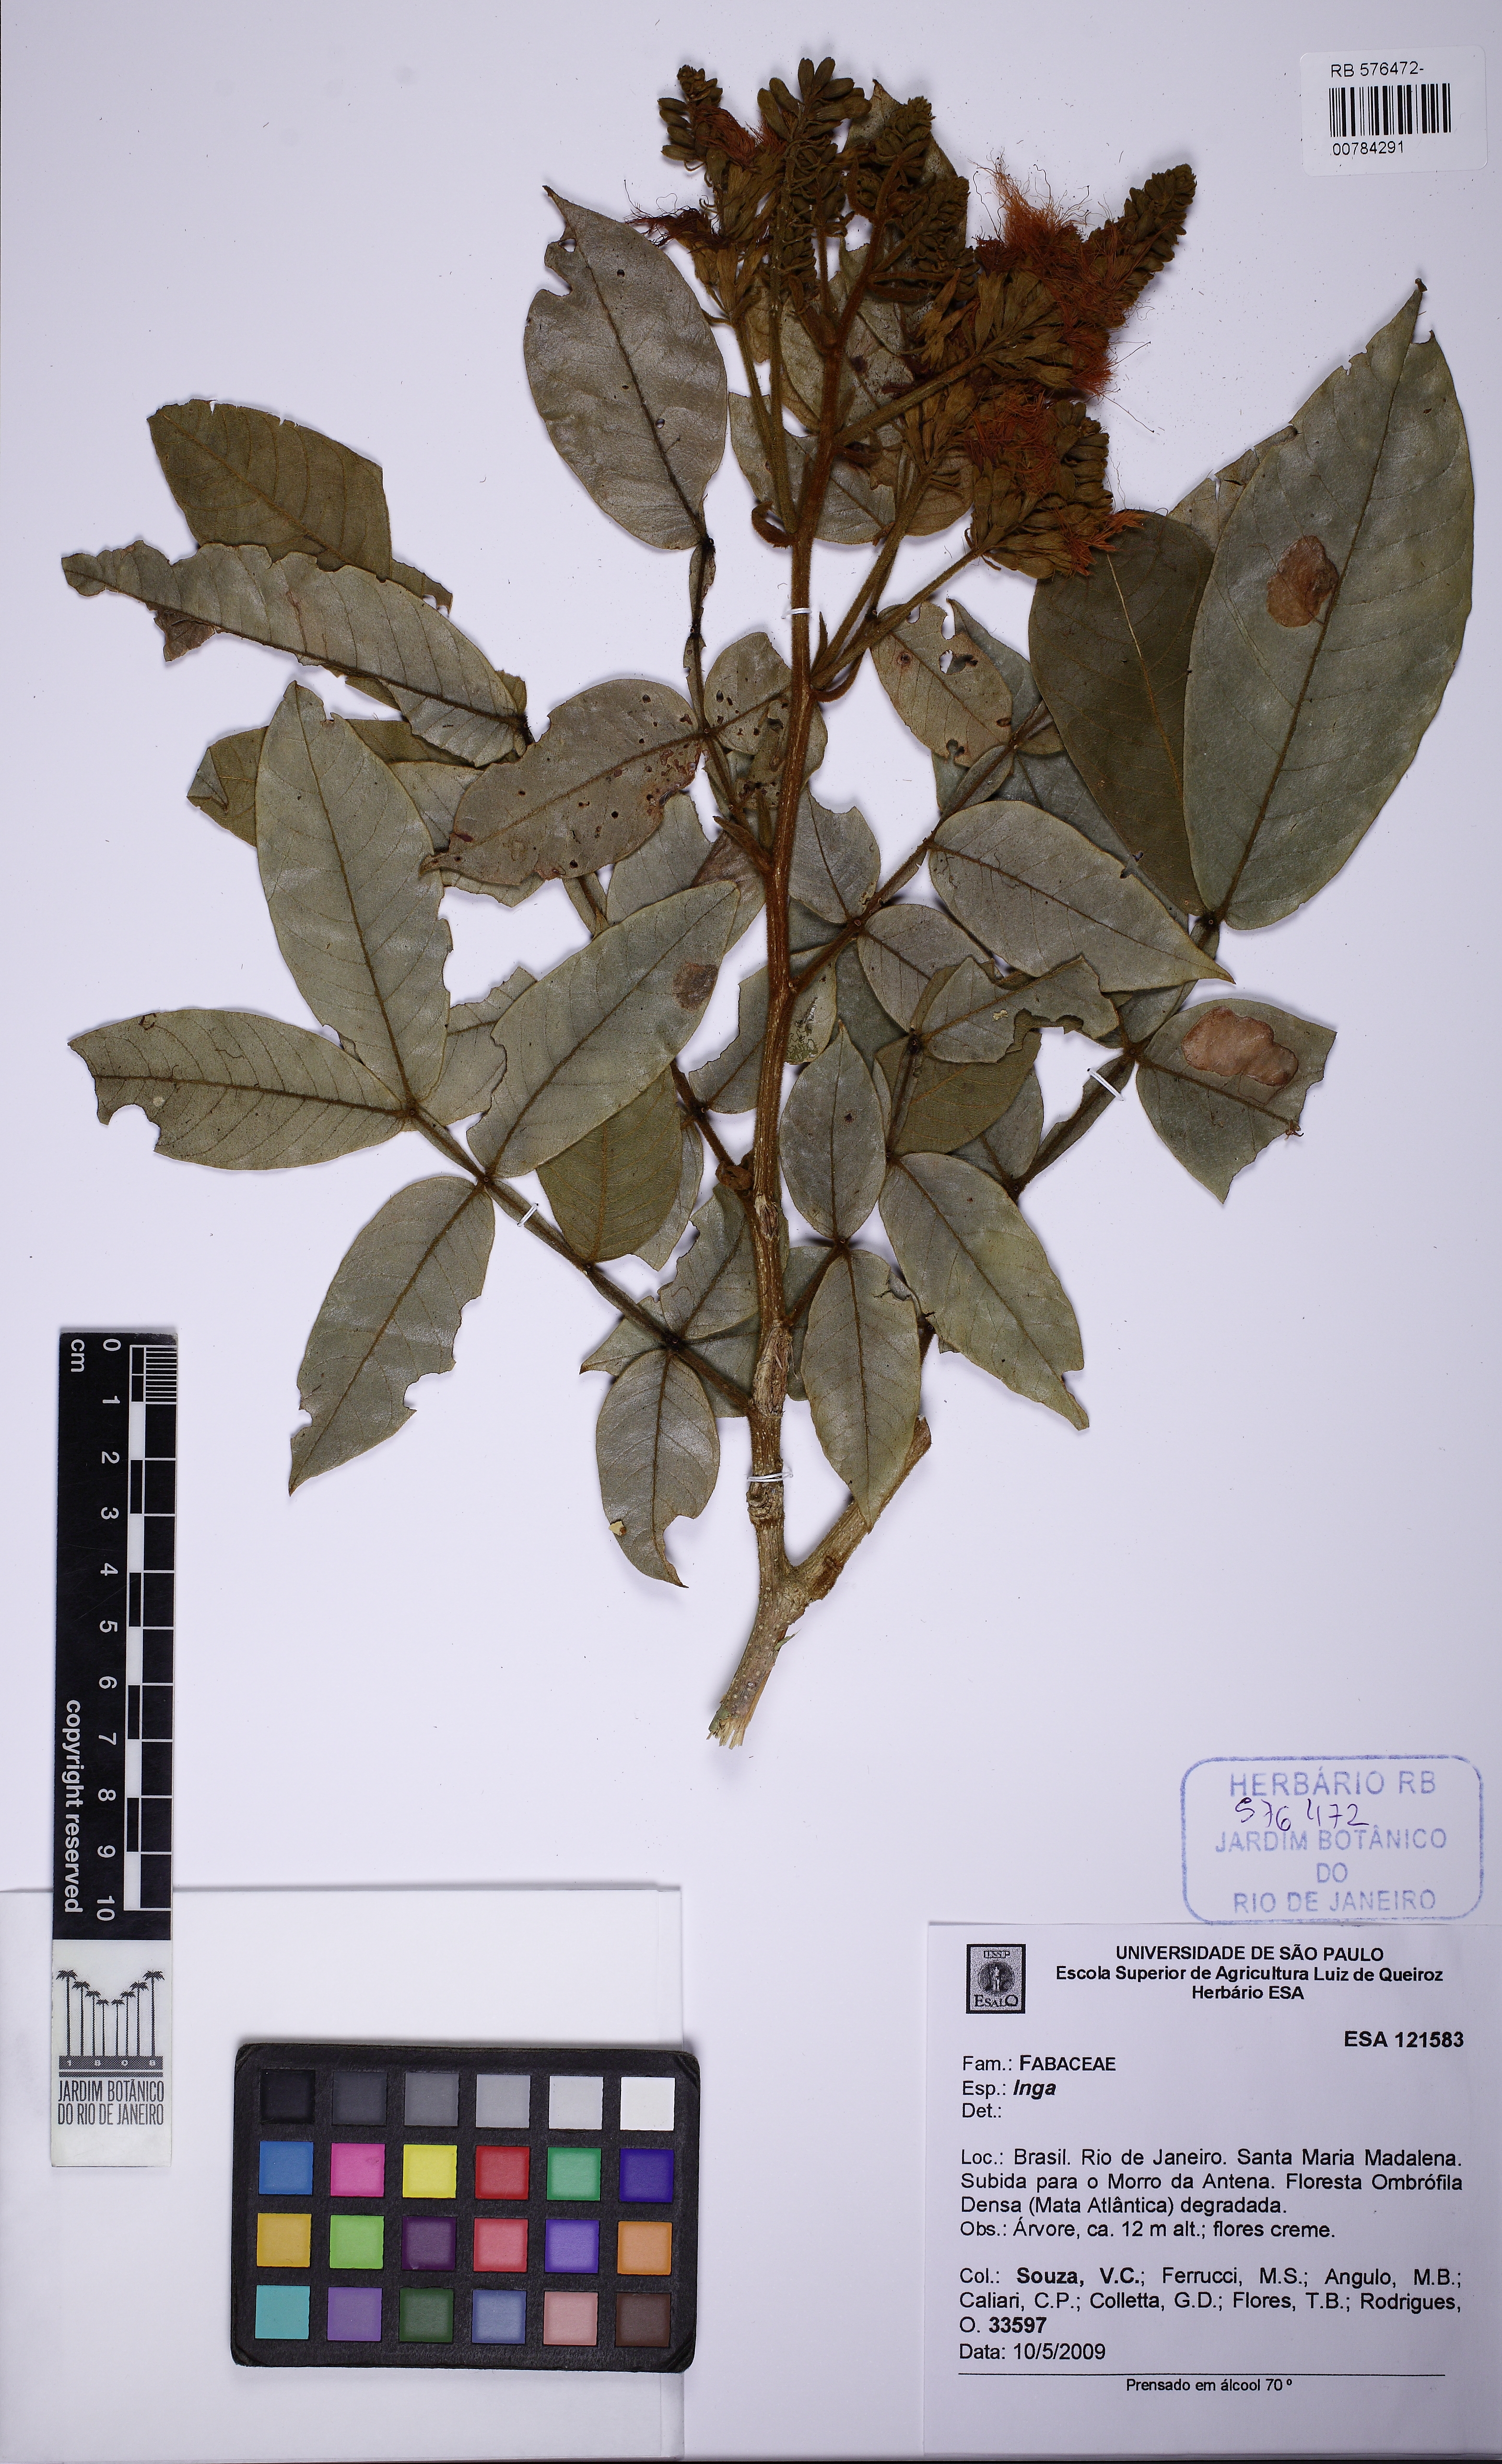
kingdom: Plantae
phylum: Tracheophyta
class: Magnoliopsida
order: Fabales
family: Fabaceae
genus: Inga
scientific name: Inga striata
